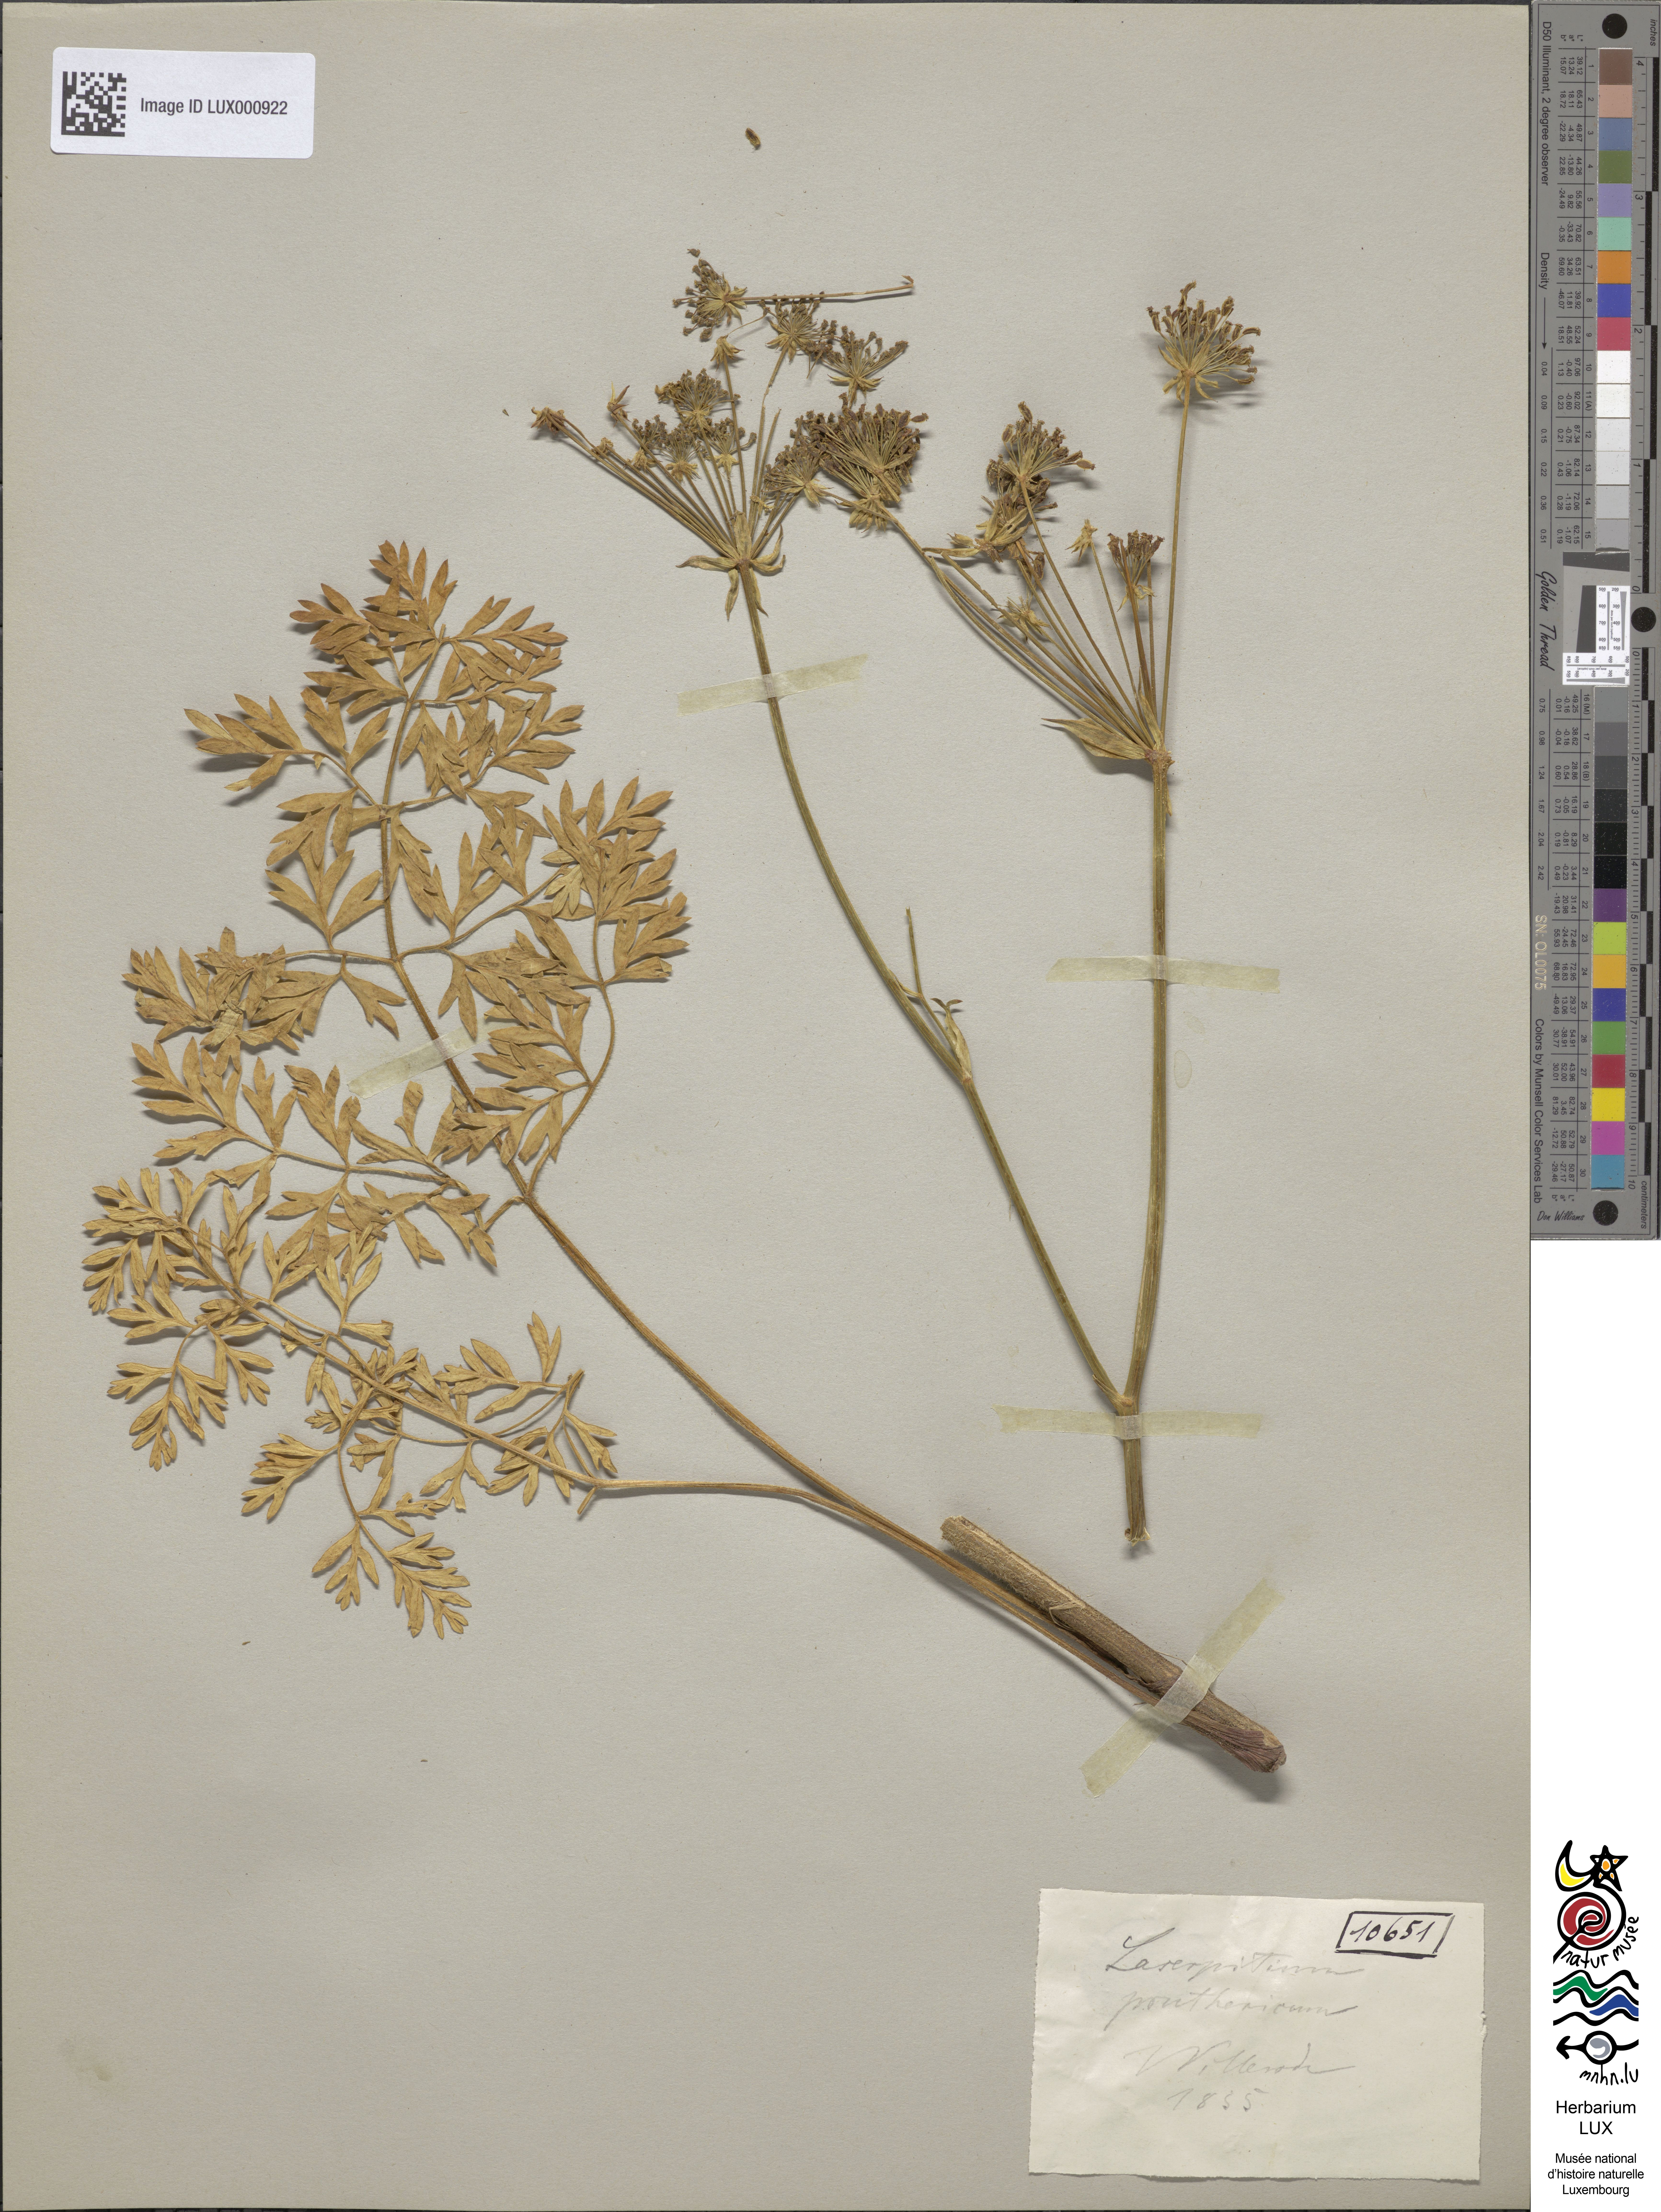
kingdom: Plantae
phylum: Tracheophyta
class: Magnoliopsida
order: Apiales
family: Apiaceae
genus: Silphiodaucus
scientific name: Silphiodaucus prutenicus
